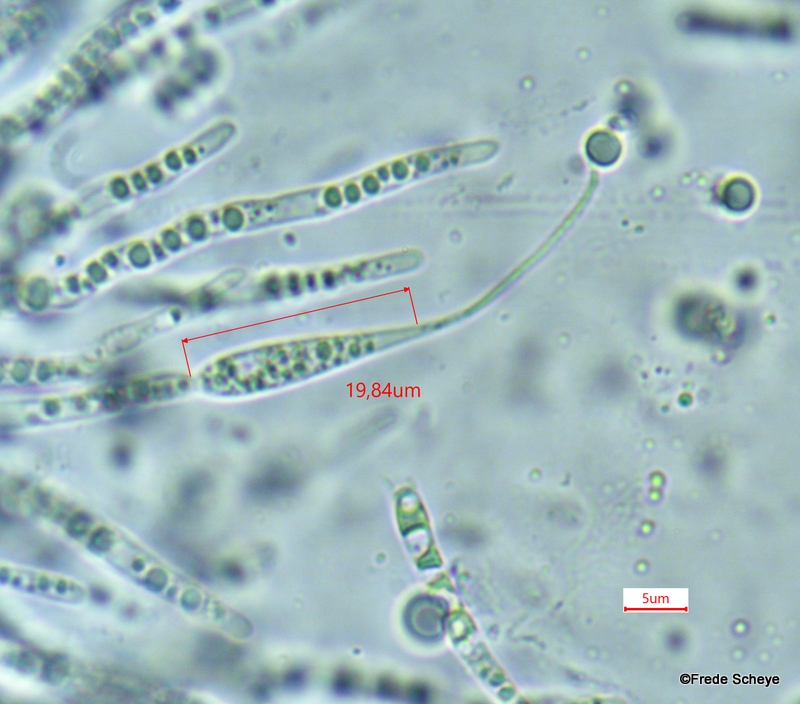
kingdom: Fungi
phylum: Ascomycota
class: Sordariomycetes
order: Amphisphaeriales
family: Amphisphaeriaceae
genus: Ceriospora
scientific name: Ceriospora polygonacearum
